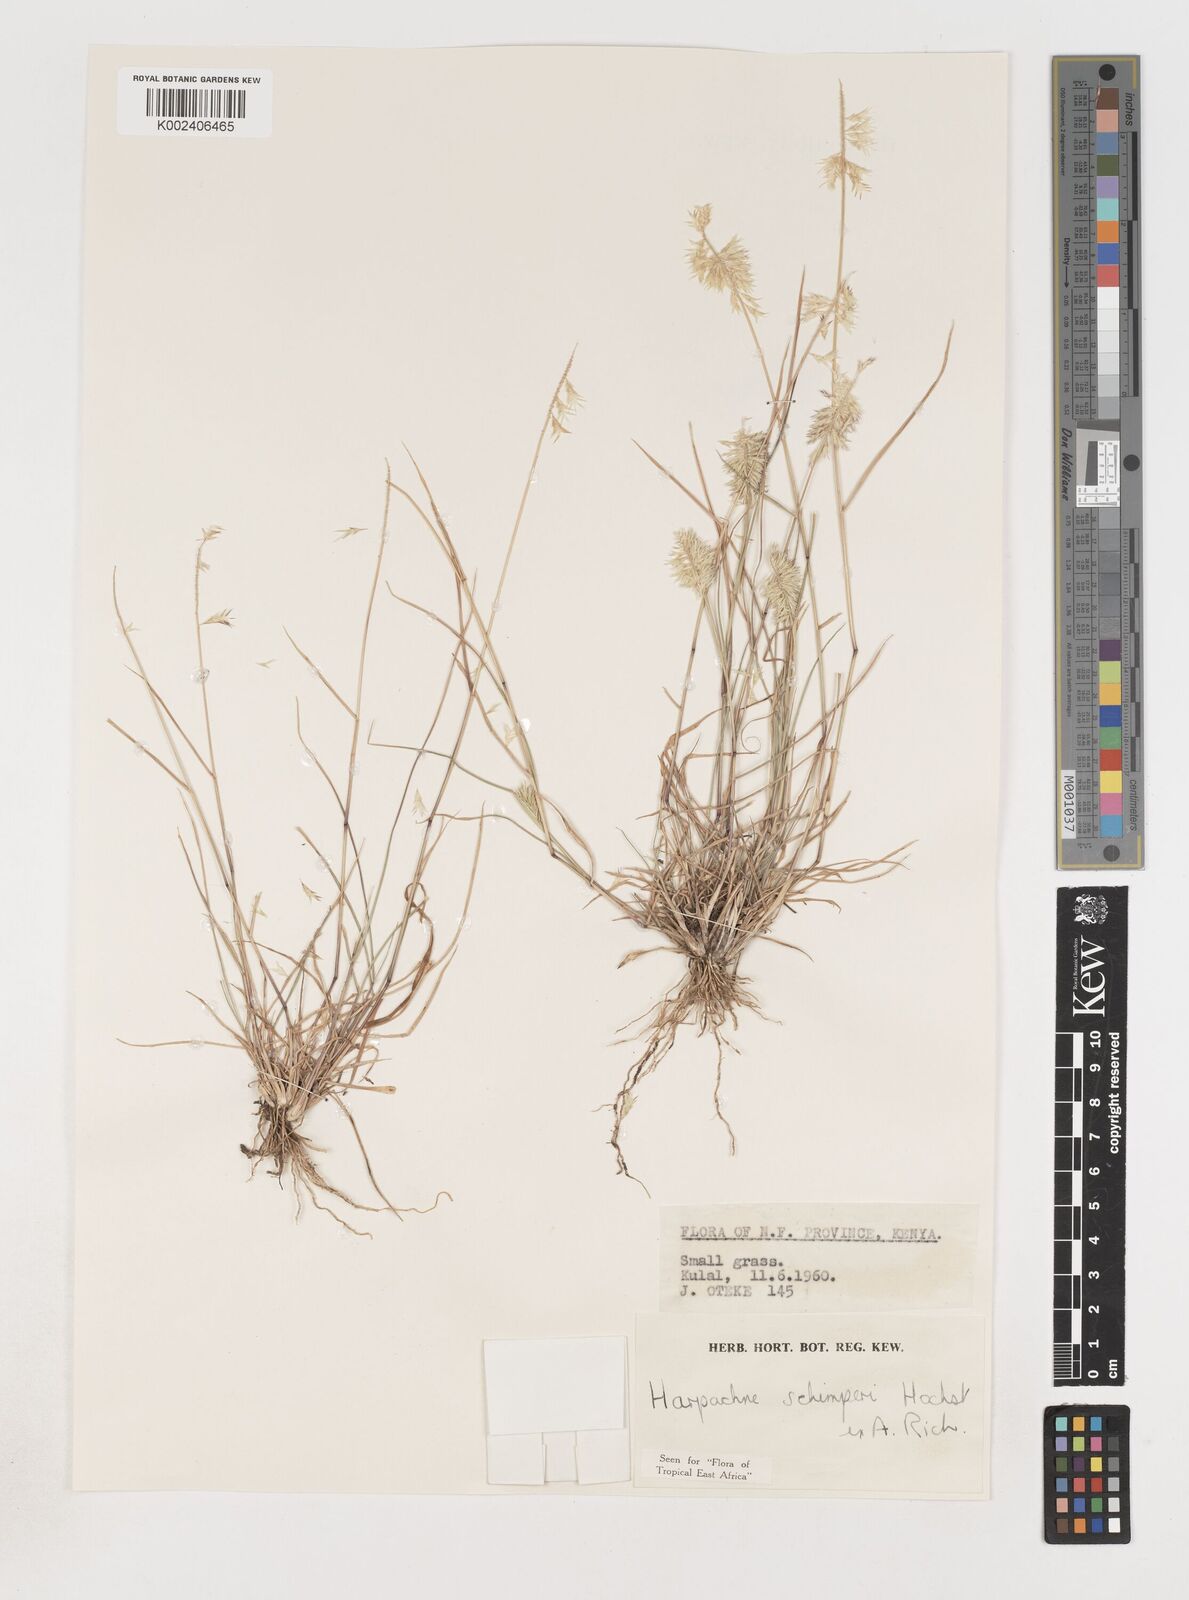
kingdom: Plantae
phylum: Tracheophyta
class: Liliopsida
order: Poales
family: Poaceae
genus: Harpachne
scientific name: Harpachne schimperi
